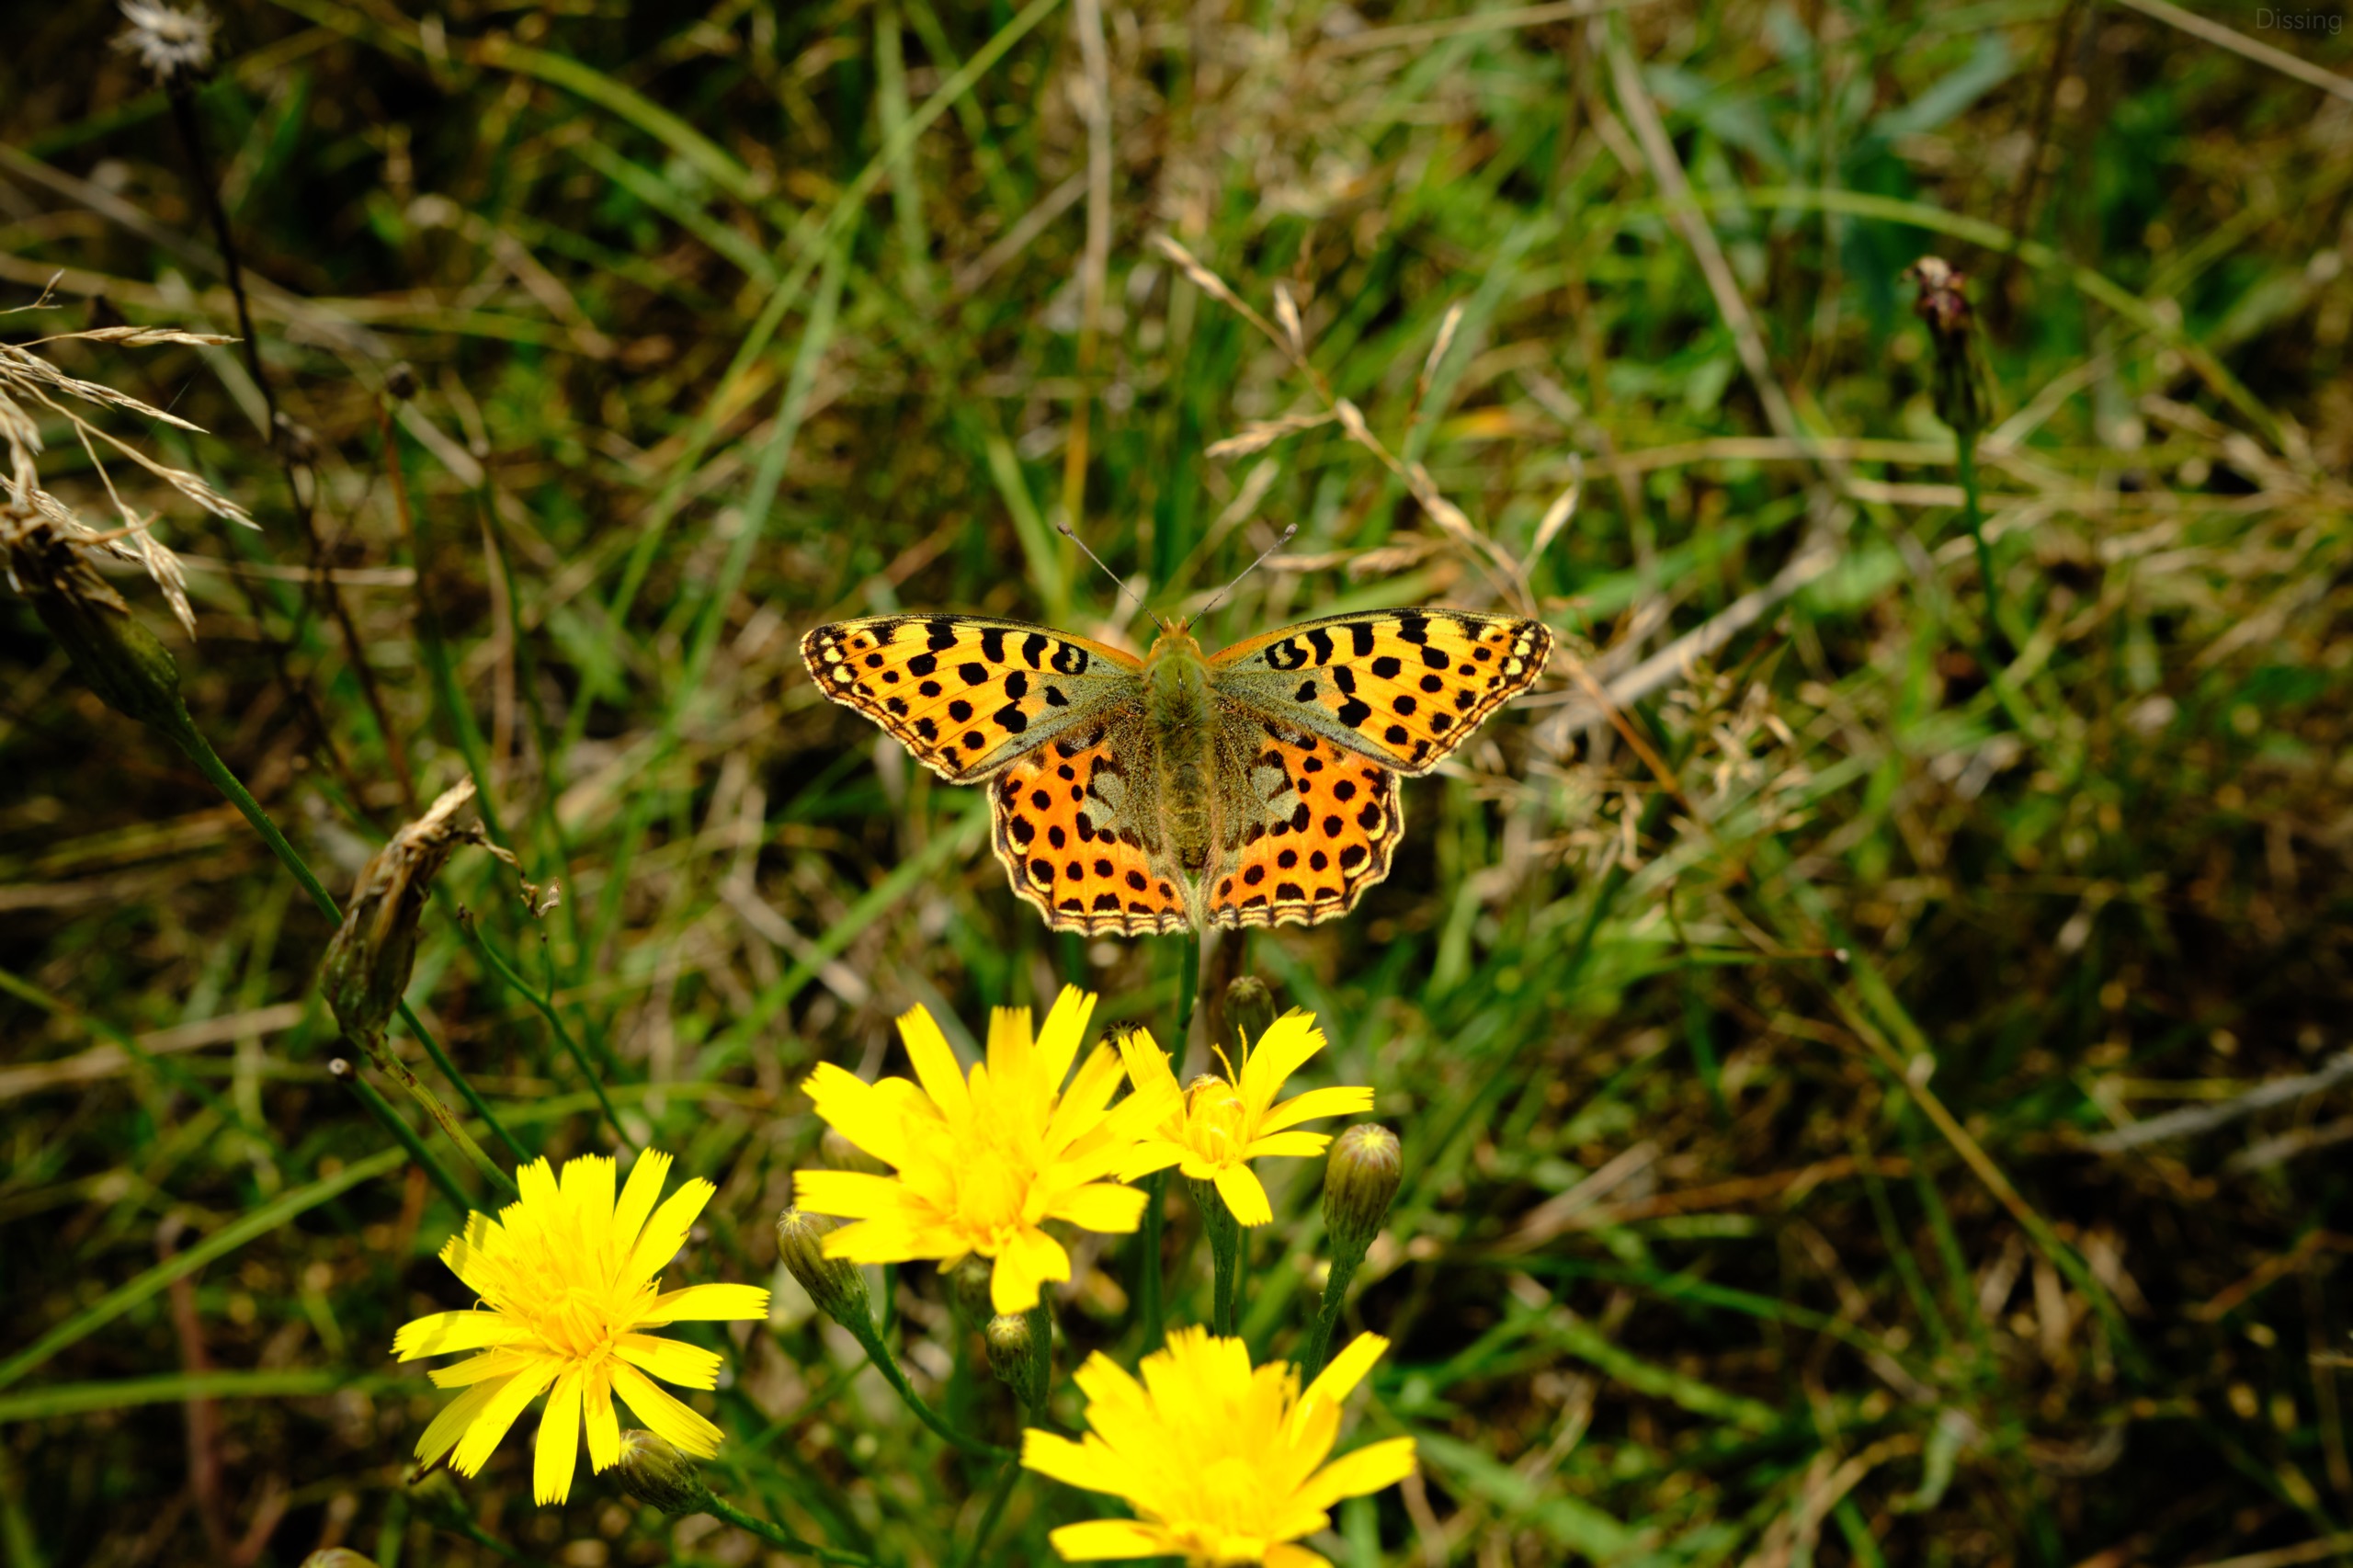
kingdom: Animalia
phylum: Arthropoda
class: Insecta
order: Lepidoptera
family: Nymphalidae
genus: Issoria
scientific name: Issoria lathonia
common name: Storplettet perlemorsommerfugl
